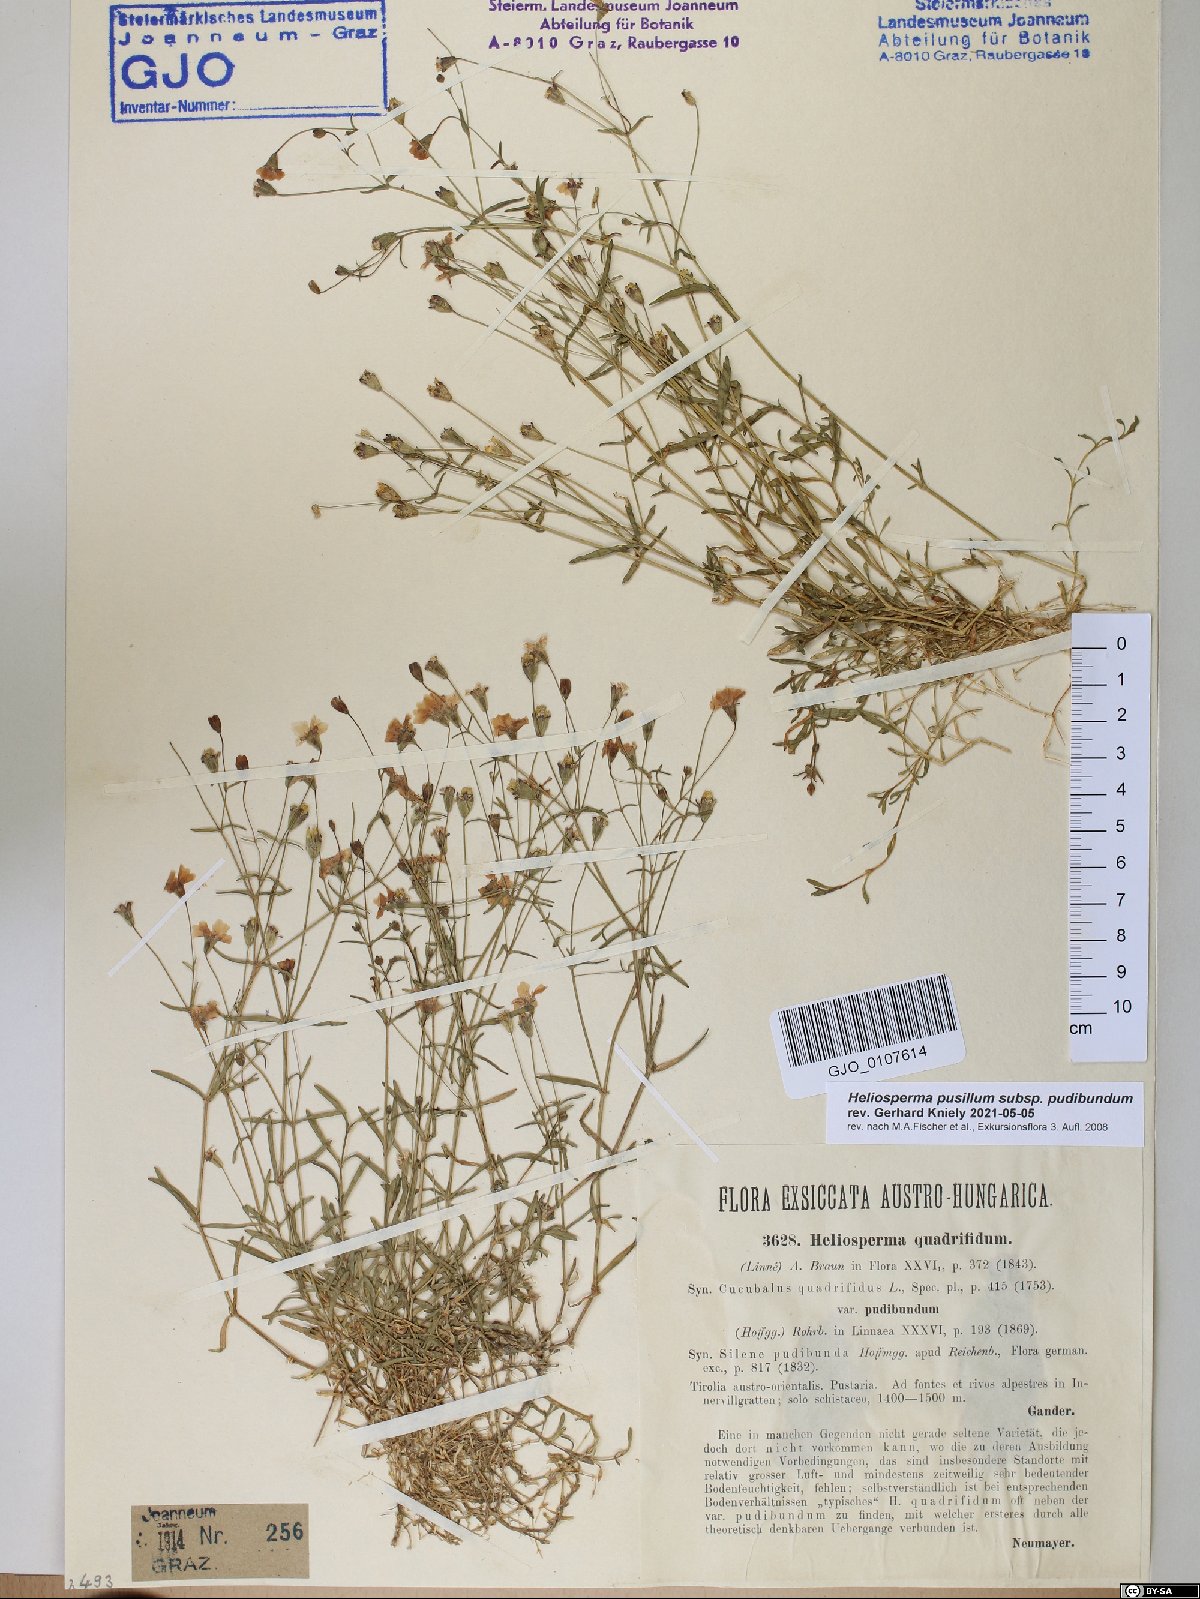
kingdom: Plantae
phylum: Tracheophyta
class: Magnoliopsida
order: Caryophyllales
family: Caryophyllaceae
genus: Heliosperma
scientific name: Heliosperma pudibundum
